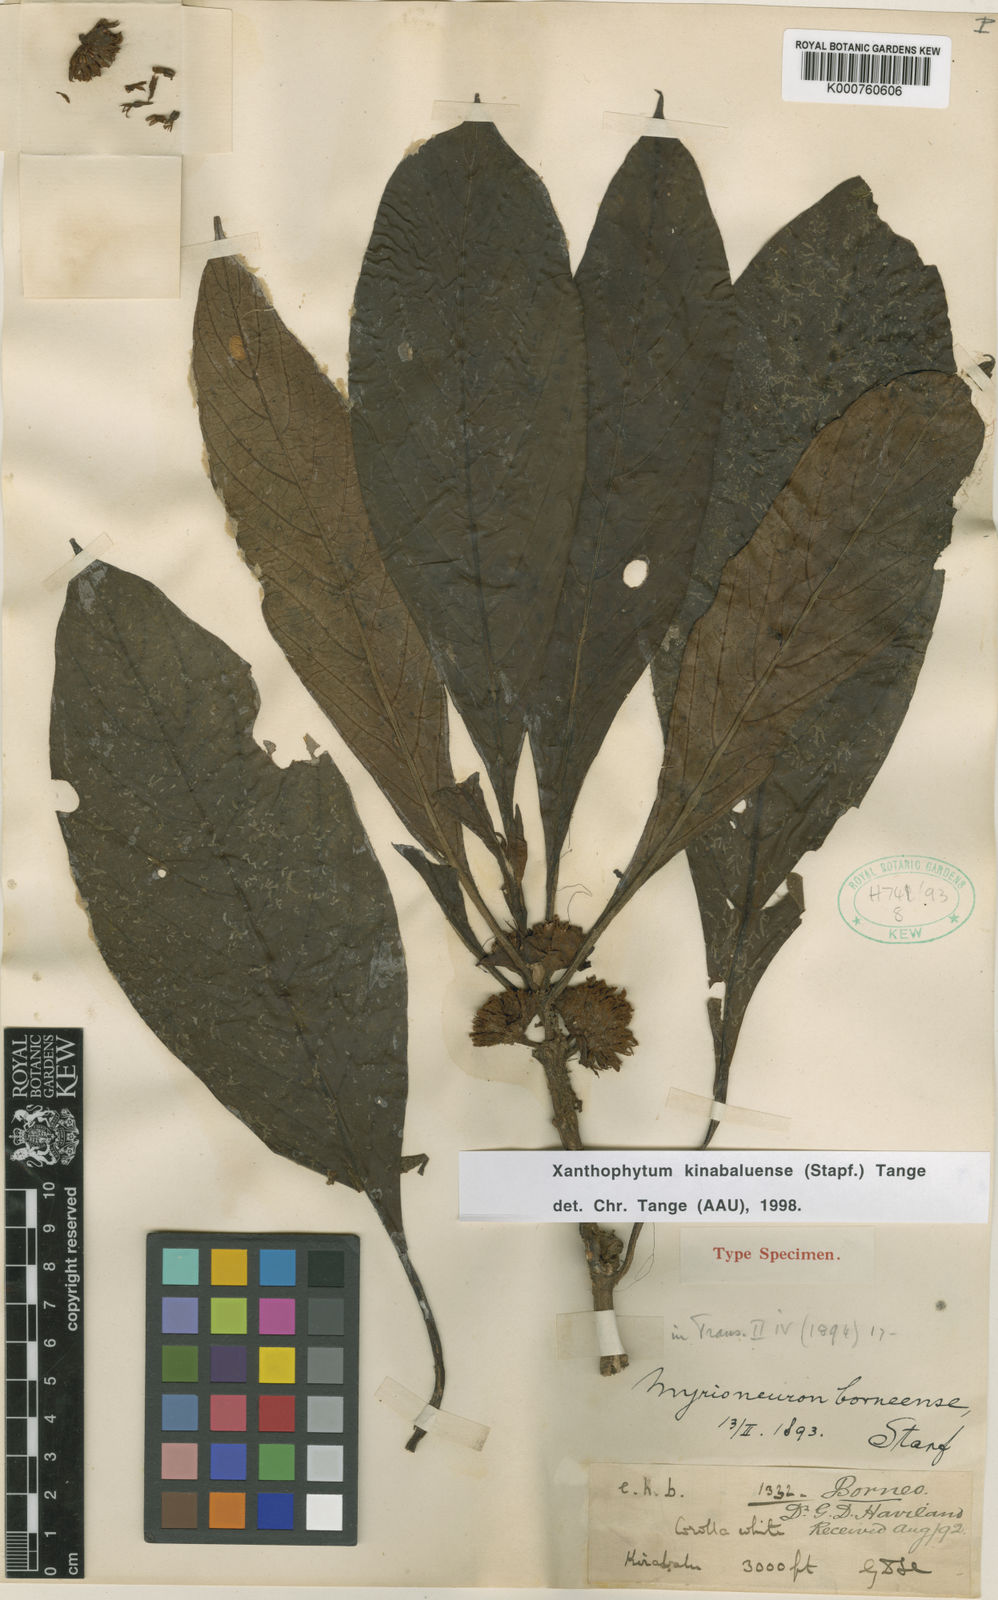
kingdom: Plantae
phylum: Tracheophyta
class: Magnoliopsida
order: Gentianales
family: Rubiaceae
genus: Xanthophytum
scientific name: Xanthophytum kinabaluense
